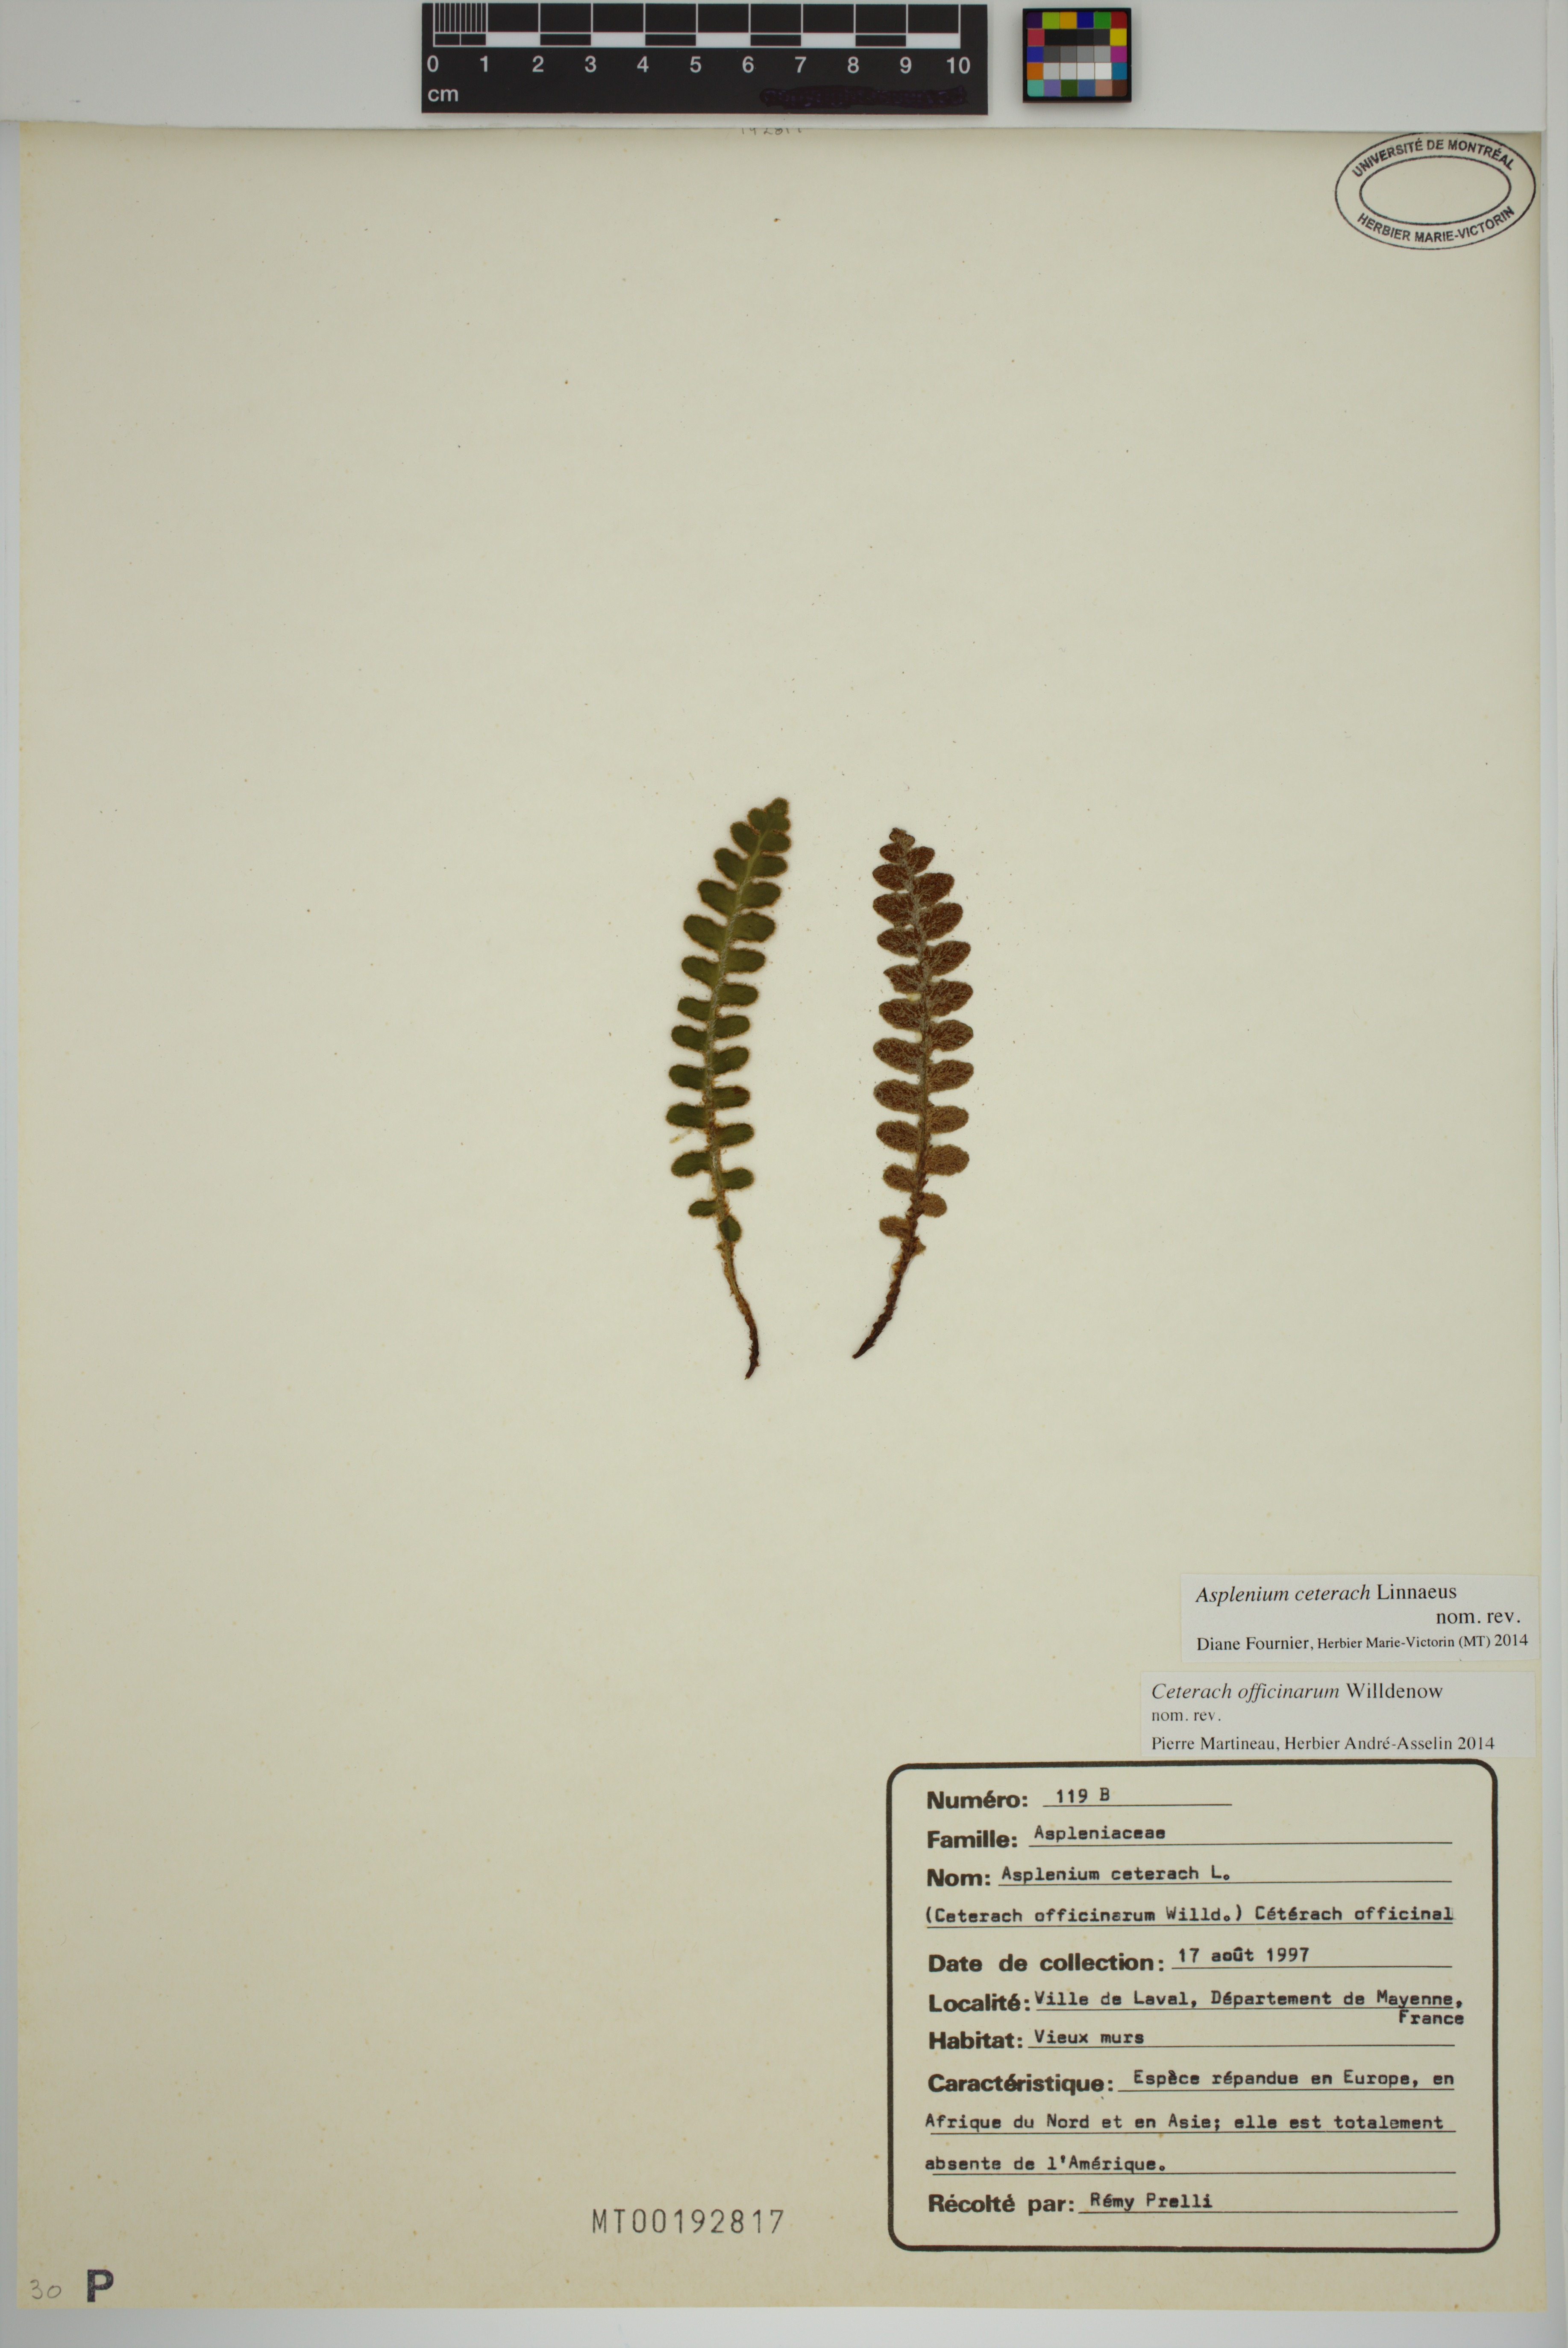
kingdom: Plantae
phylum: Tracheophyta
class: Polypodiopsida
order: Polypodiales
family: Aspleniaceae
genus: Asplenium
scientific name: Asplenium ceterach
